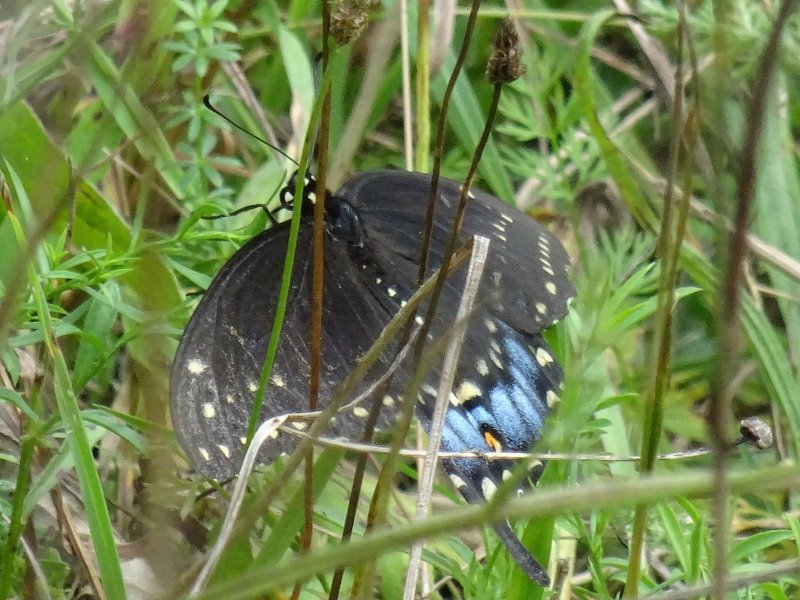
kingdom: Animalia
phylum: Arthropoda
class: Insecta
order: Lepidoptera
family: Papilionidae
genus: Papilio
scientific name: Papilio polyxenes
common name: Black Swallowtail
